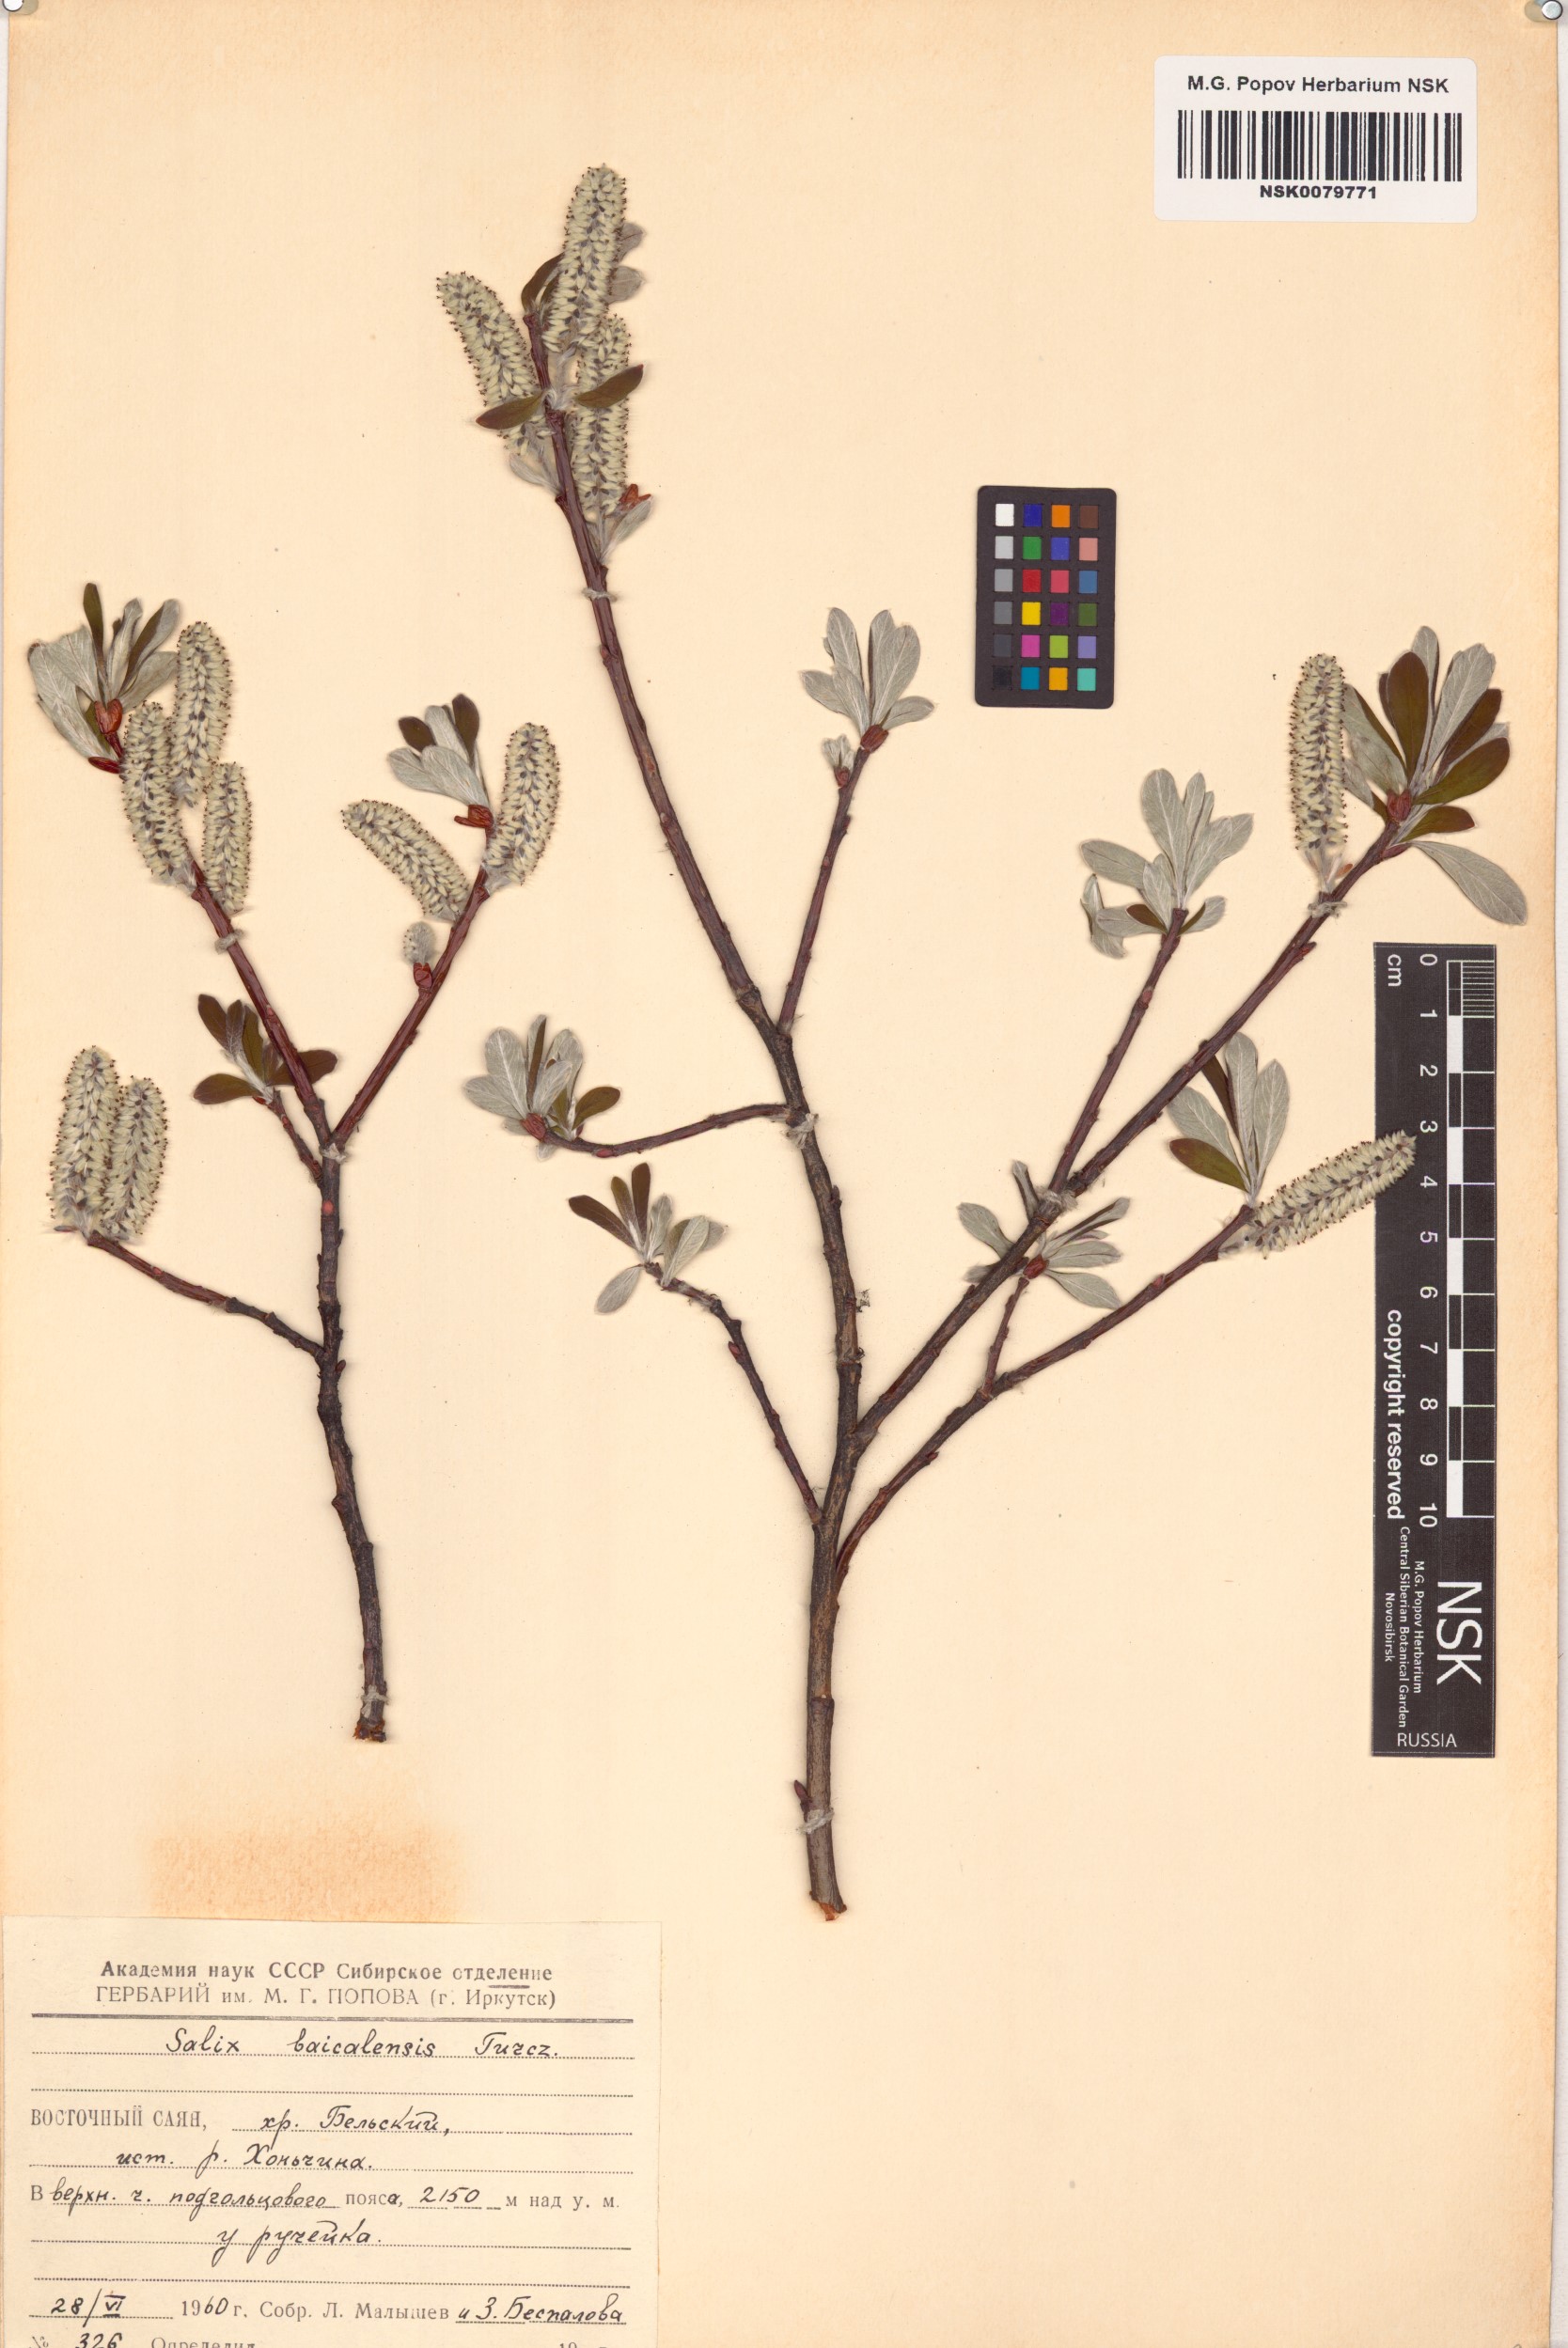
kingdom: Plantae
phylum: Tracheophyta
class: Magnoliopsida
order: Malpighiales
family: Salicaceae
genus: Salix
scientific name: Salix krylovii
